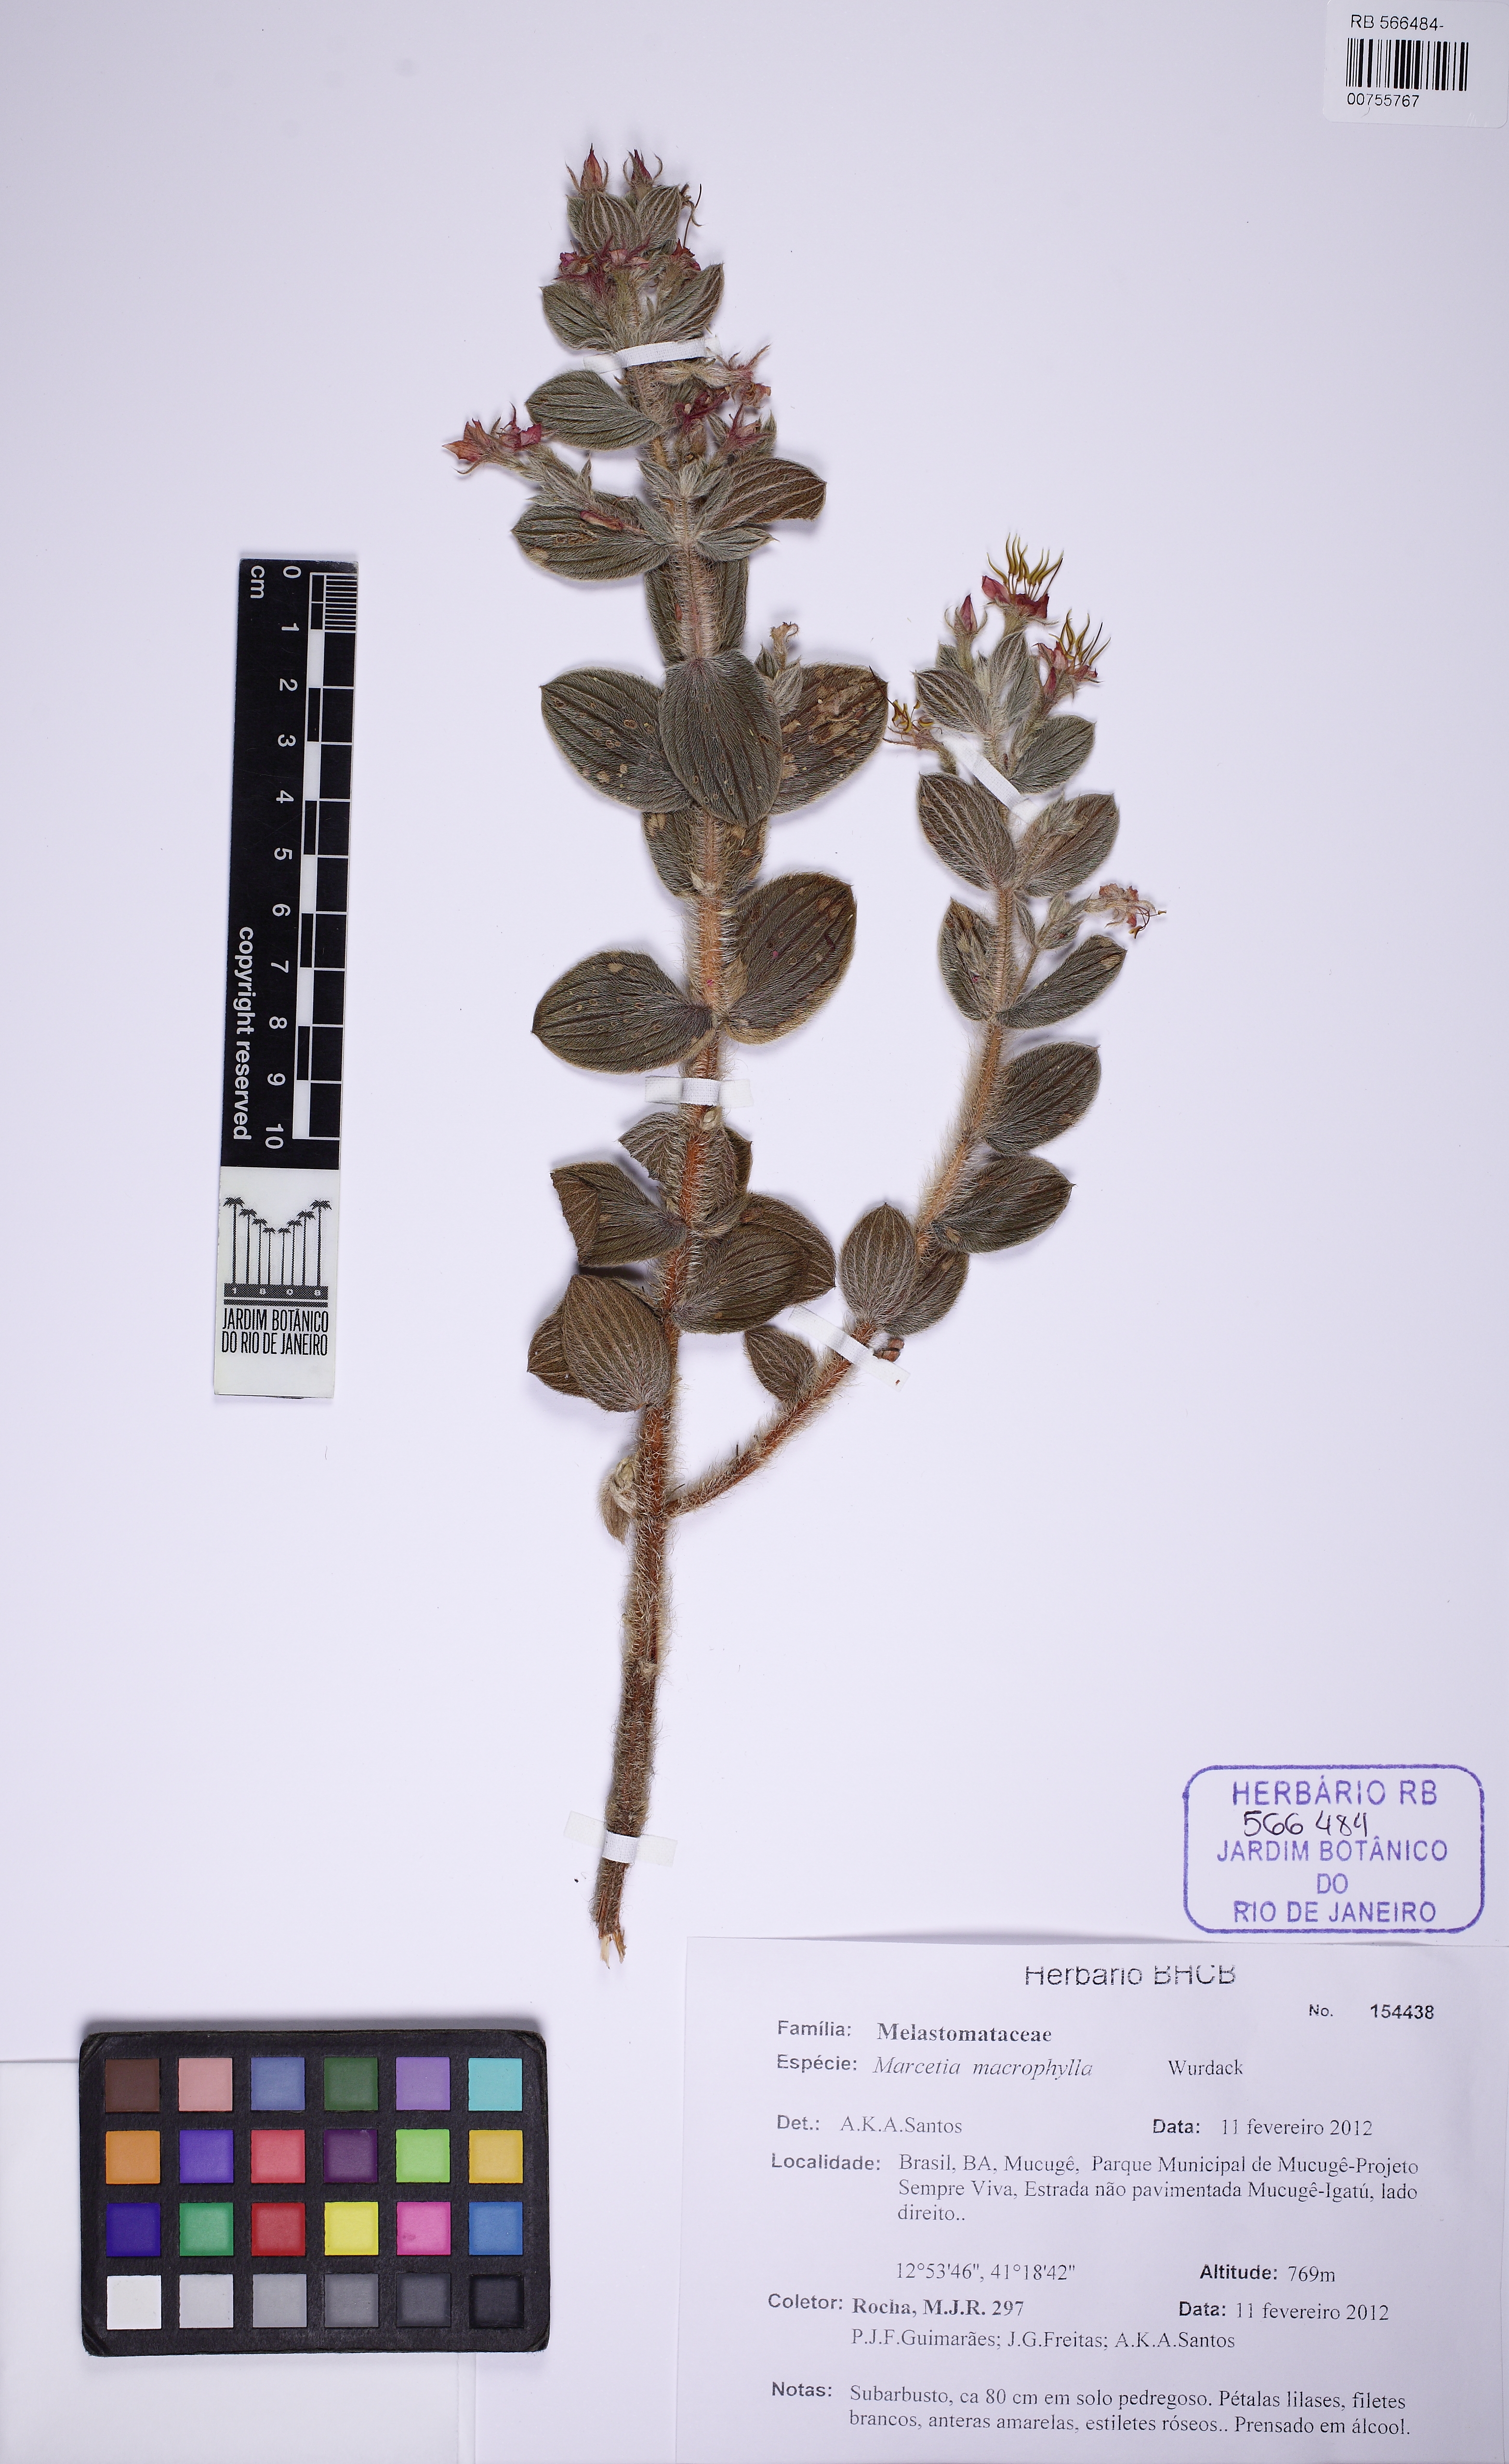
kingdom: Plantae
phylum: Tracheophyta
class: Magnoliopsida
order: Myrtales
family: Melastomataceae
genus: Marcetia
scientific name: Marcetia macrophylla
